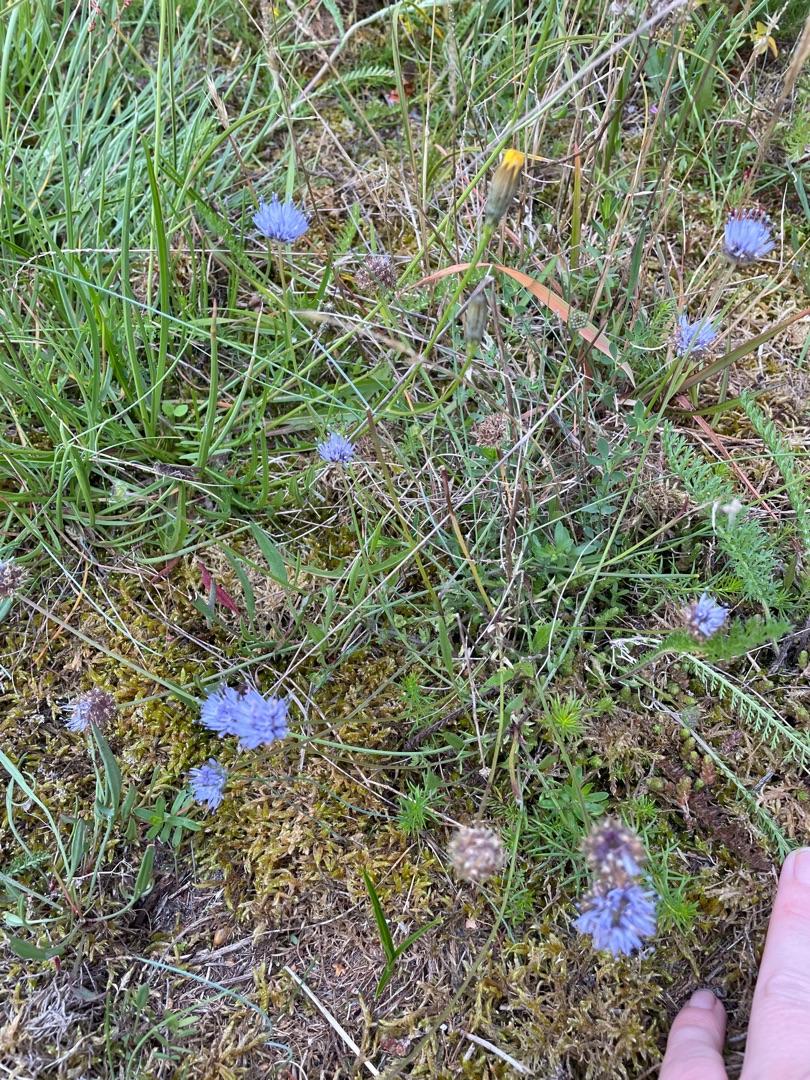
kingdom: Plantae
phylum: Tracheophyta
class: Magnoliopsida
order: Asterales
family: Campanulaceae
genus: Jasione
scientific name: Jasione montana
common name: Blåmunke
